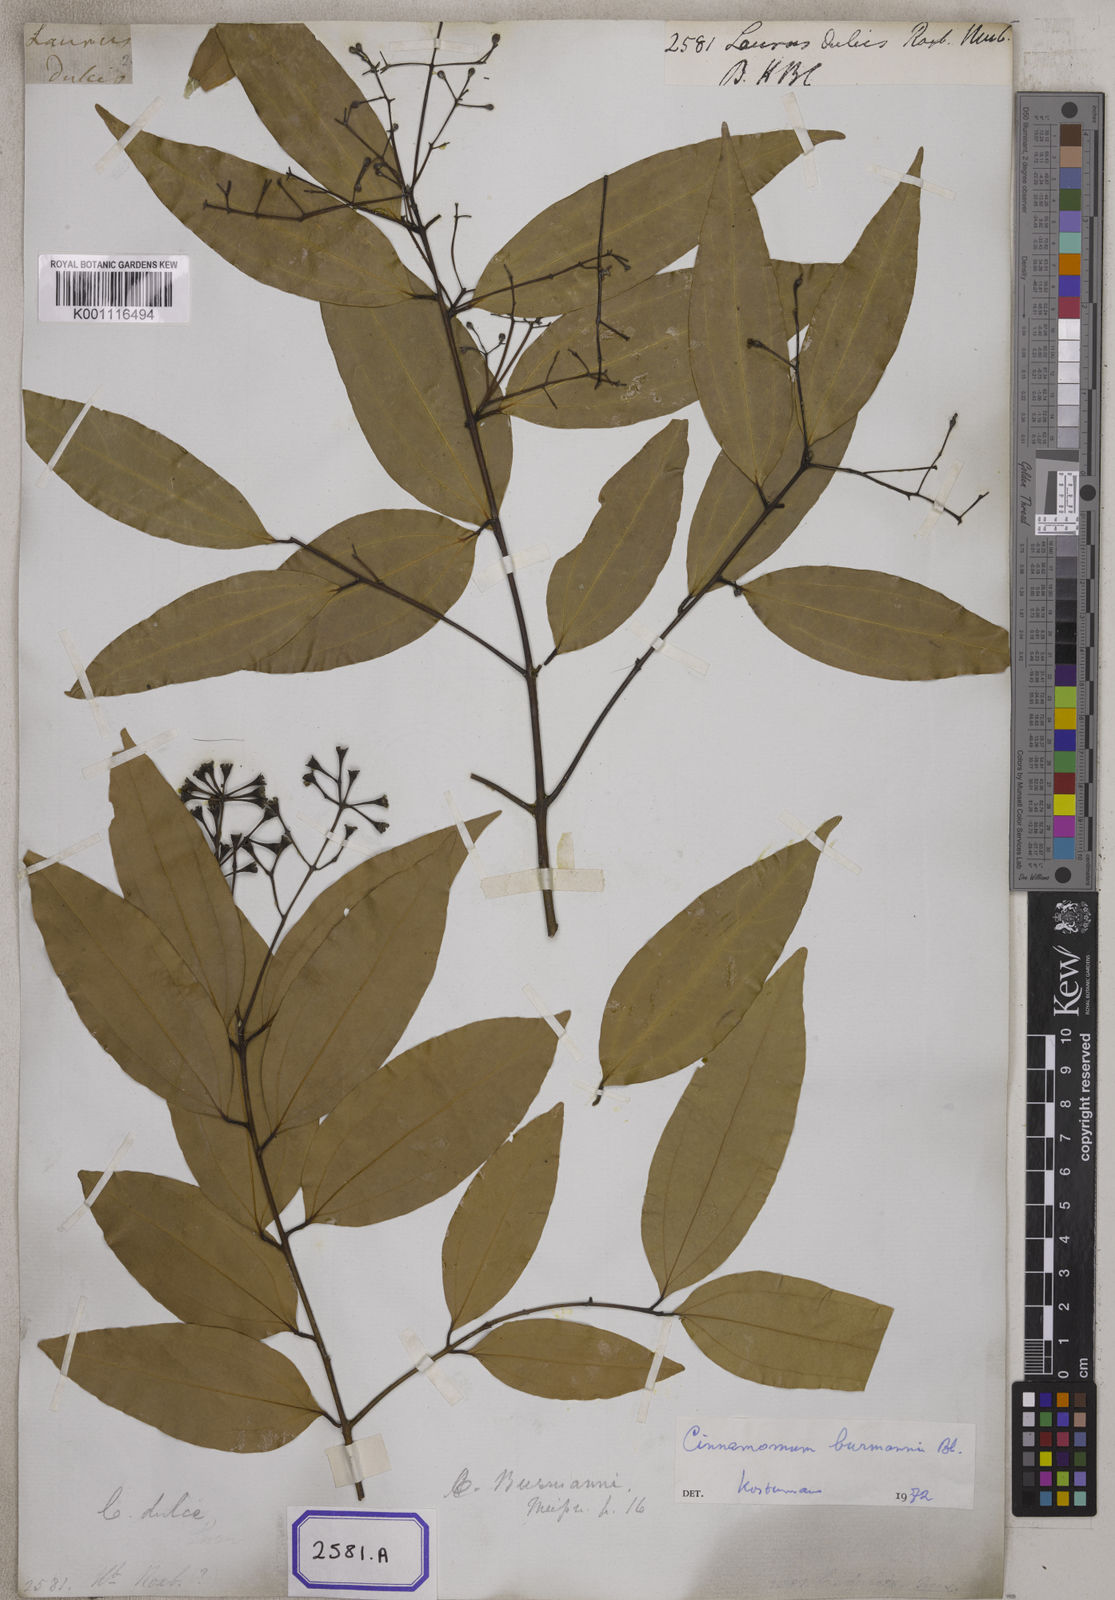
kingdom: Plantae
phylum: Tracheophyta
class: Magnoliopsida
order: Laurales
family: Lauraceae
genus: Cinnamomum
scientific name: Cinnamomum dubium
